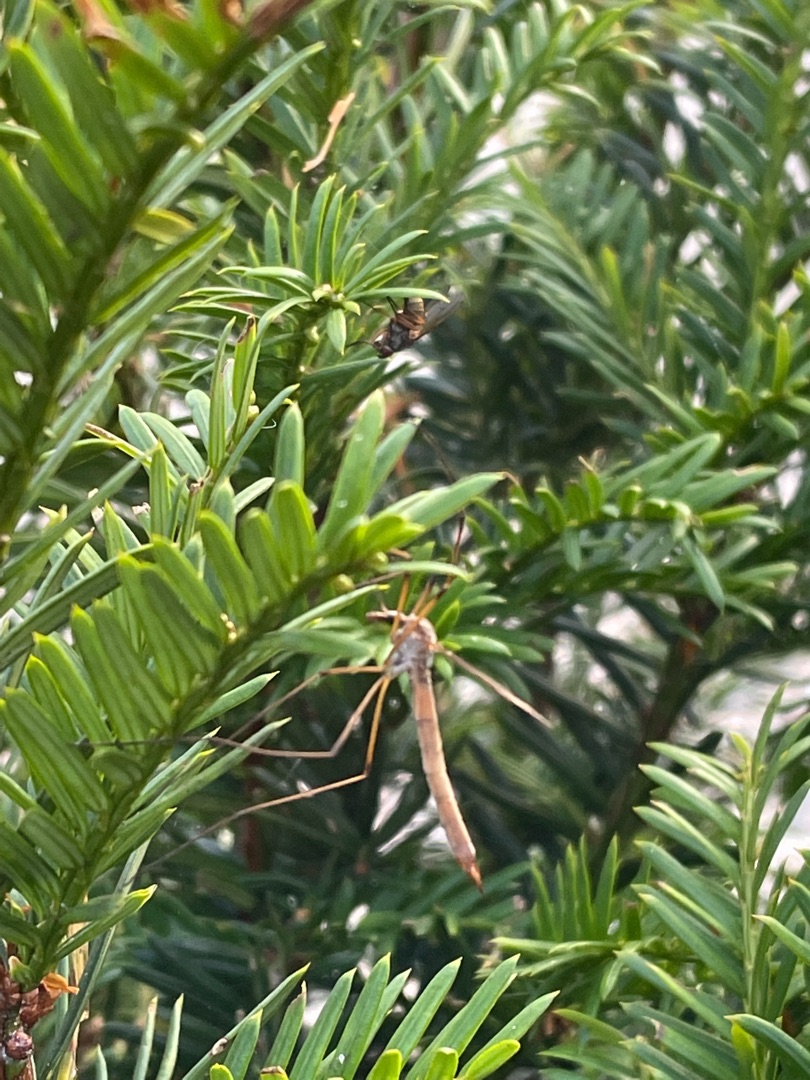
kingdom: Plantae
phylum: Tracheophyta
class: Pinopsida
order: Pinales
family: Taxaceae
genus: Taxus
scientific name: Taxus baccata
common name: Almindelig taks
